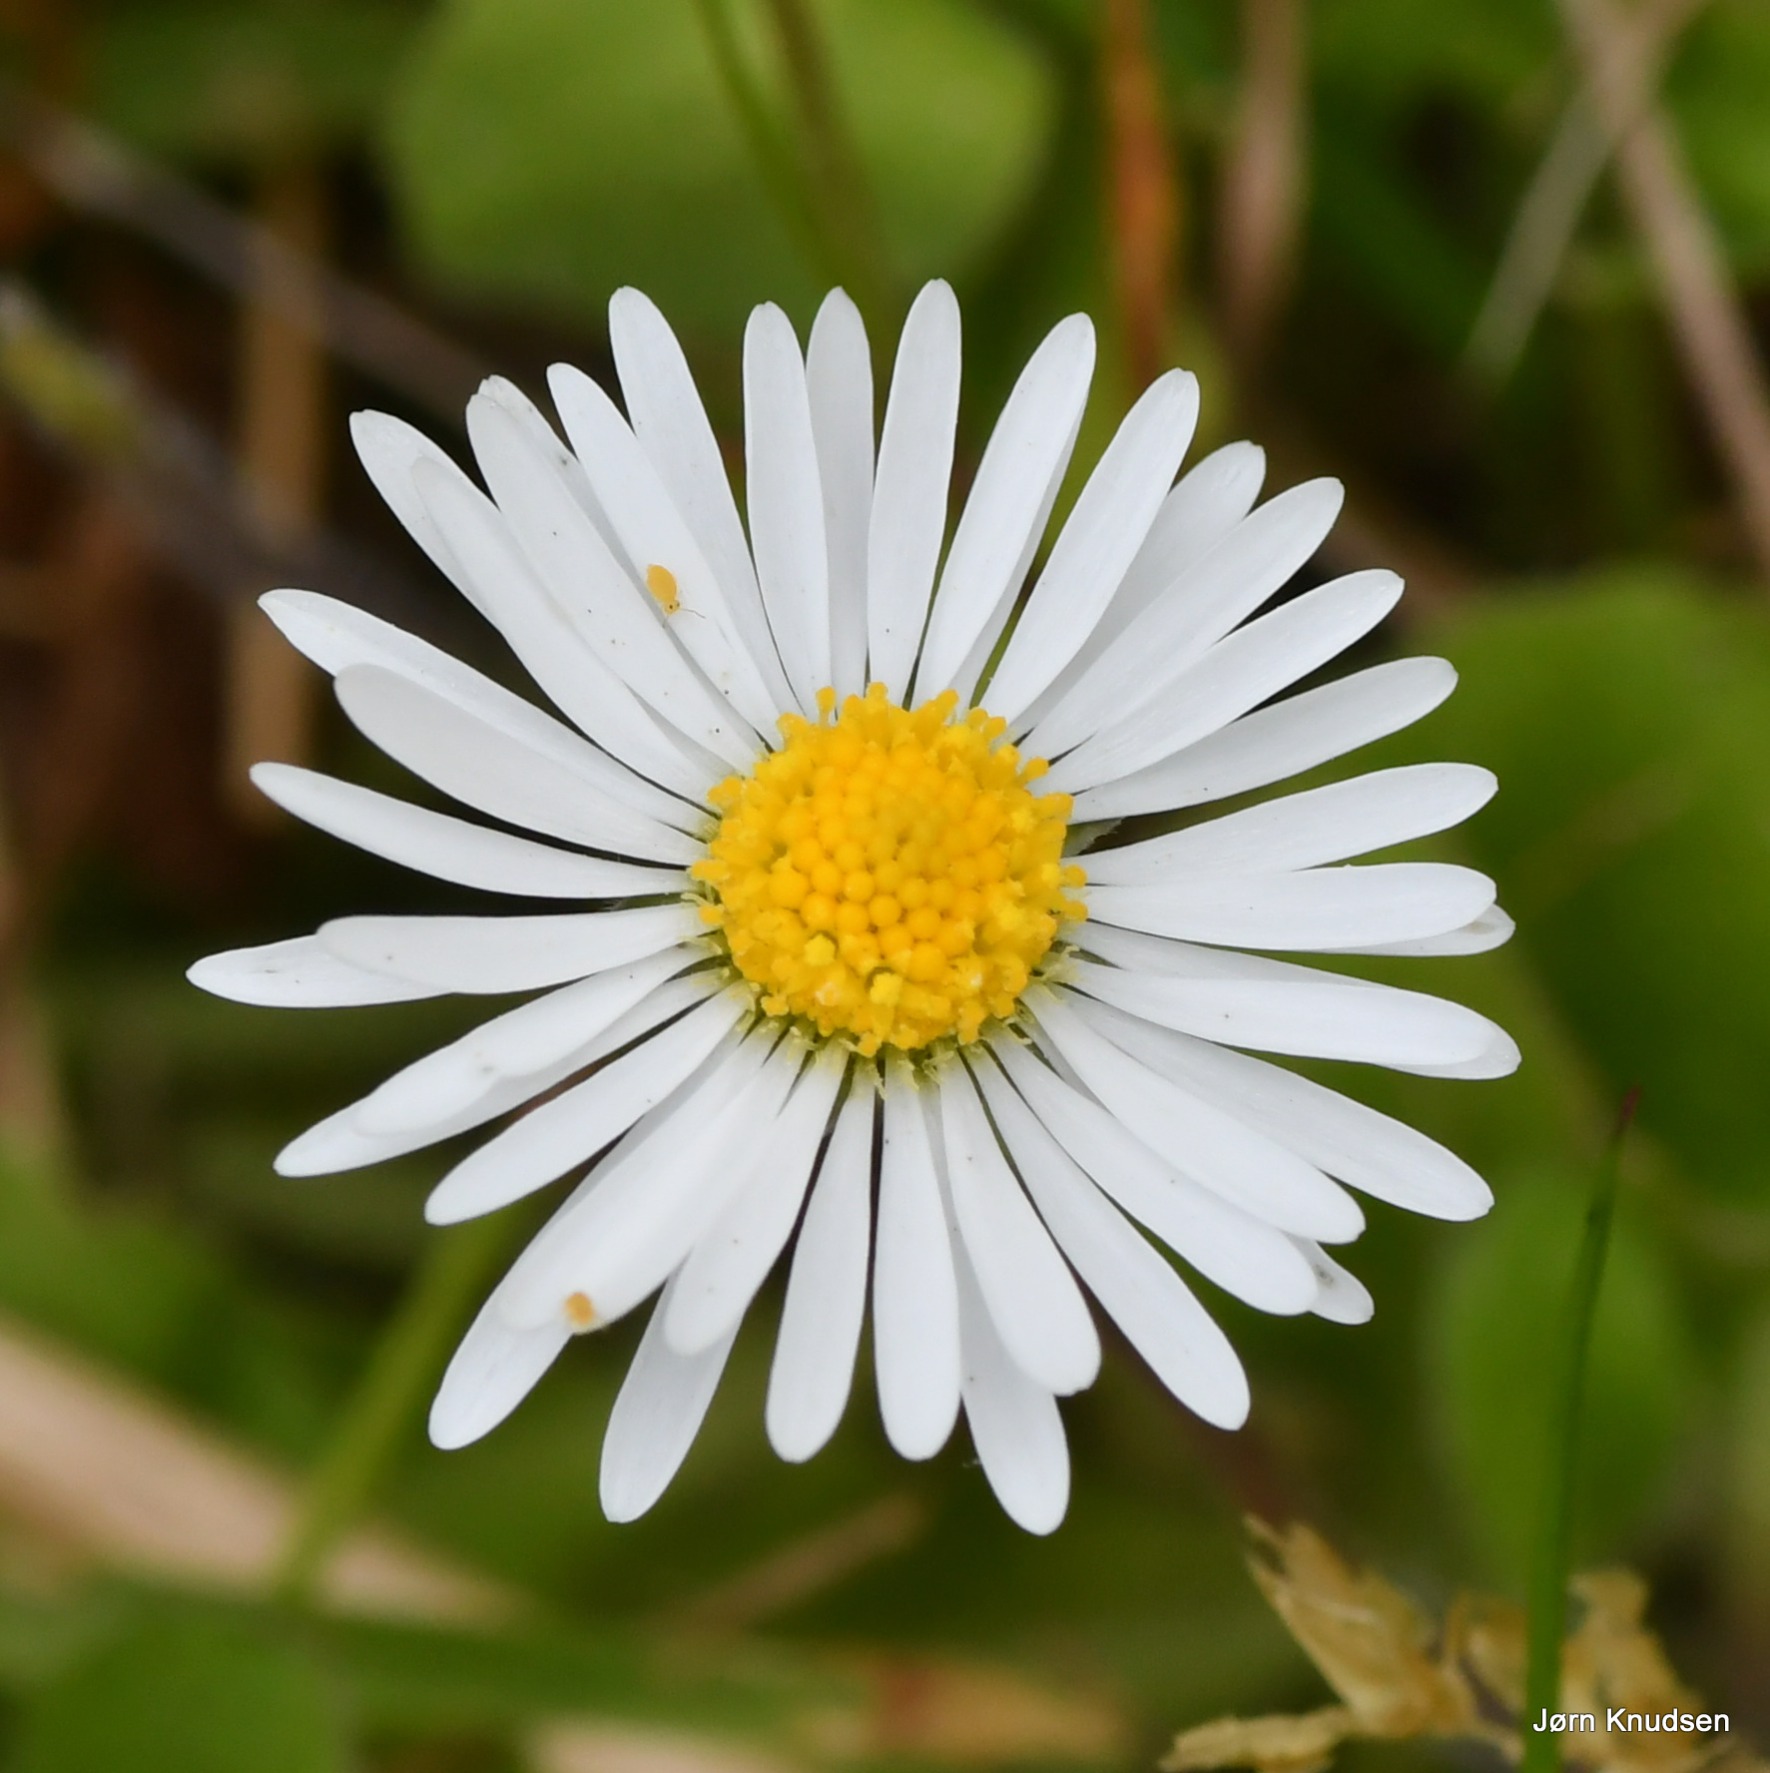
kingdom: Plantae
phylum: Tracheophyta
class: Magnoliopsida
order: Asterales
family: Asteraceae
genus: Bellis
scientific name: Bellis perennis
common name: Tusindfryd
